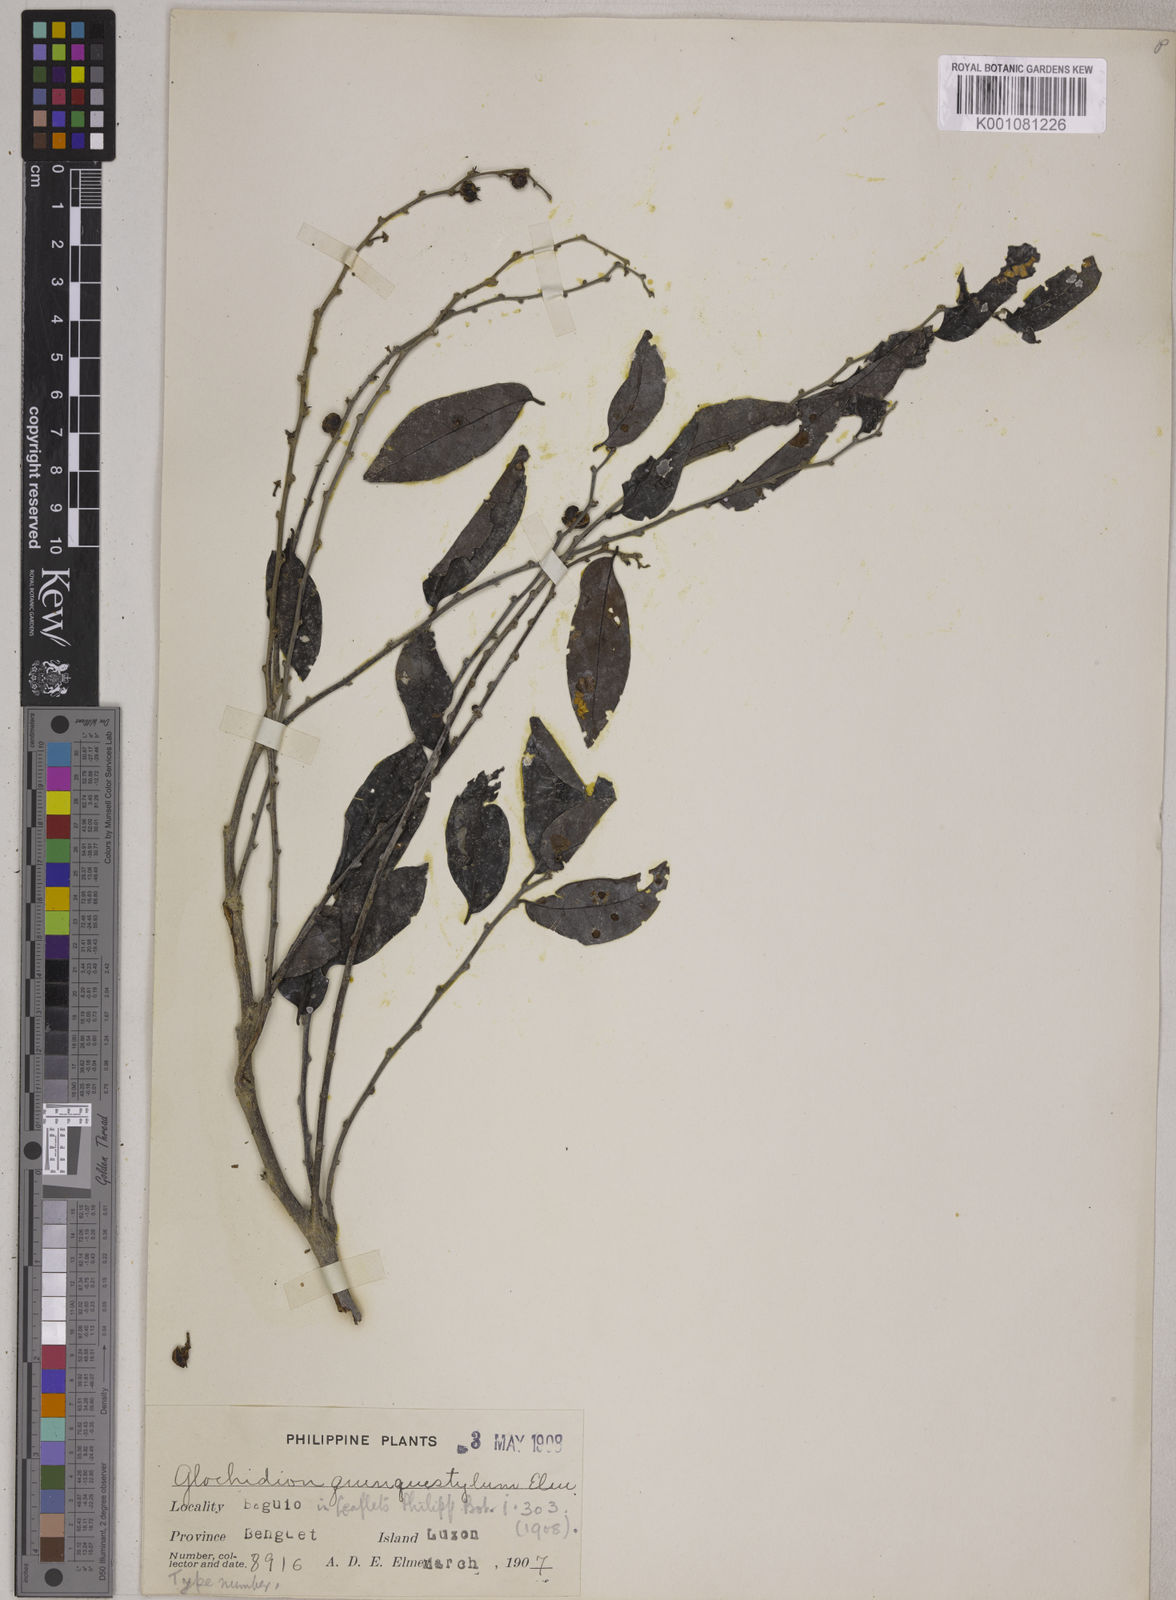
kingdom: Plantae
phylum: Tracheophyta
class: Magnoliopsida
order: Malpighiales
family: Phyllanthaceae
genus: Glochidion
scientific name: Glochidion triandrum
